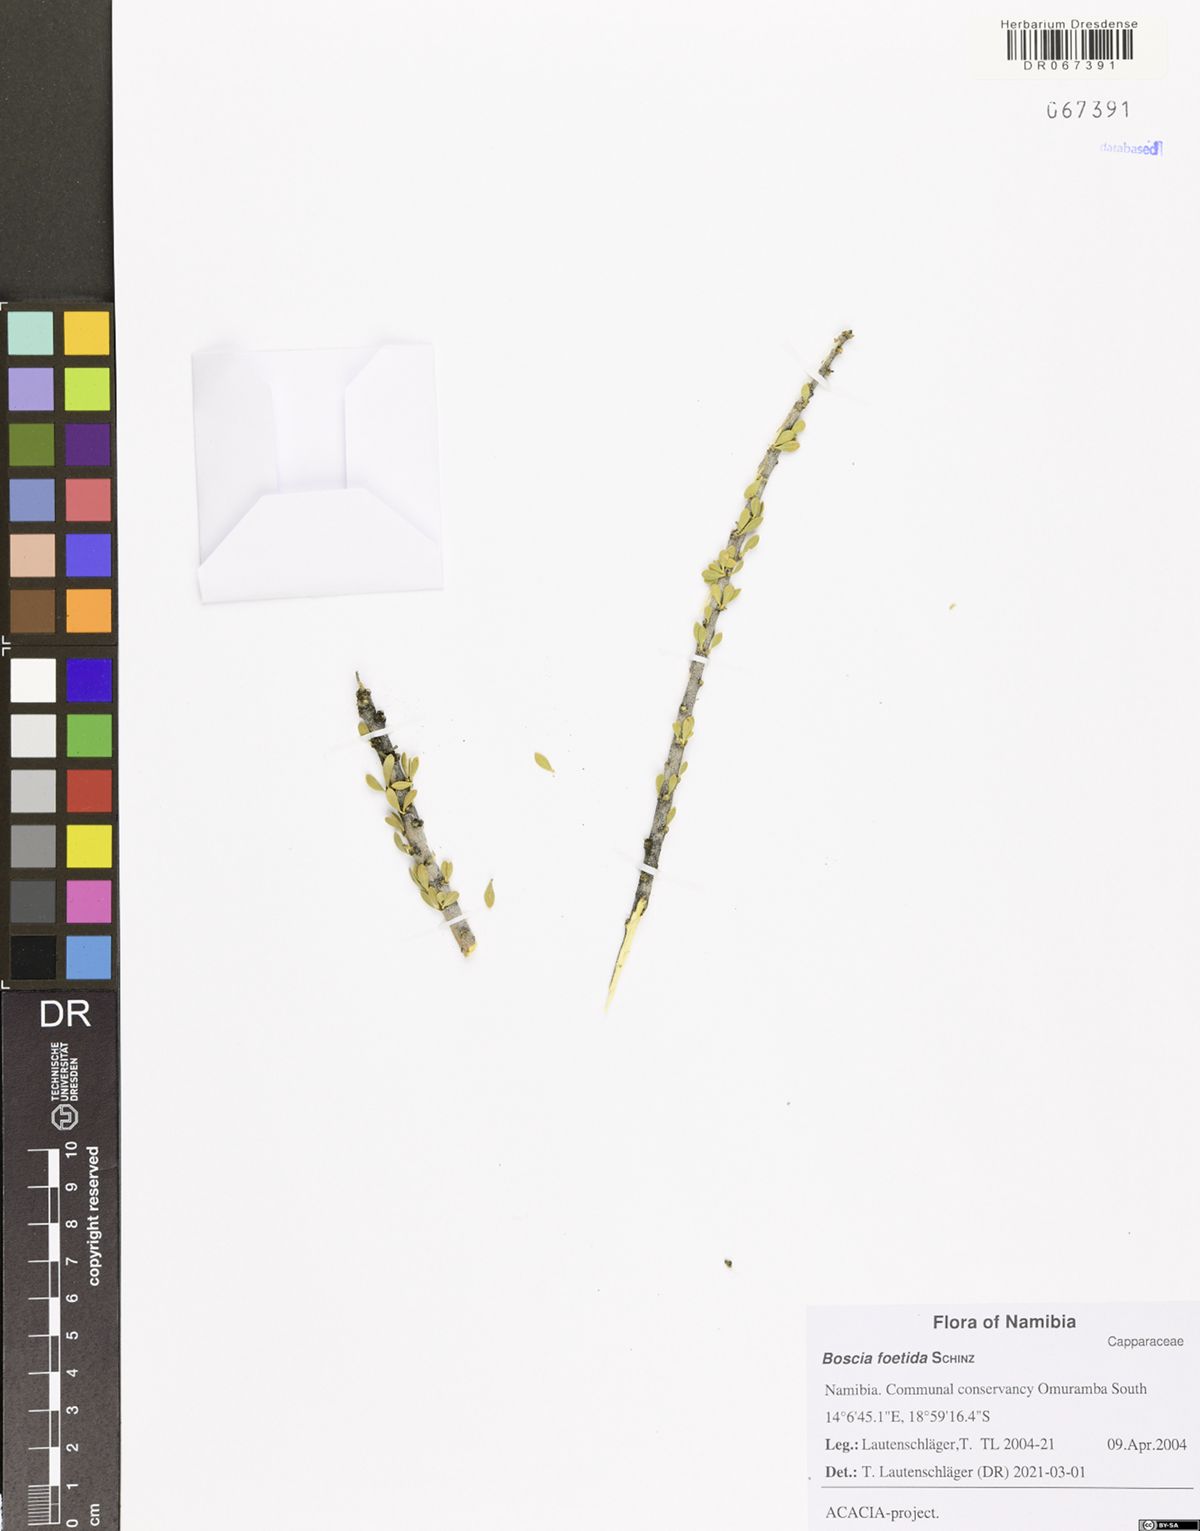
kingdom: Plantae
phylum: Tracheophyta
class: Magnoliopsida
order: Brassicales
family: Capparaceae
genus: Boscia
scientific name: Boscia foetida
